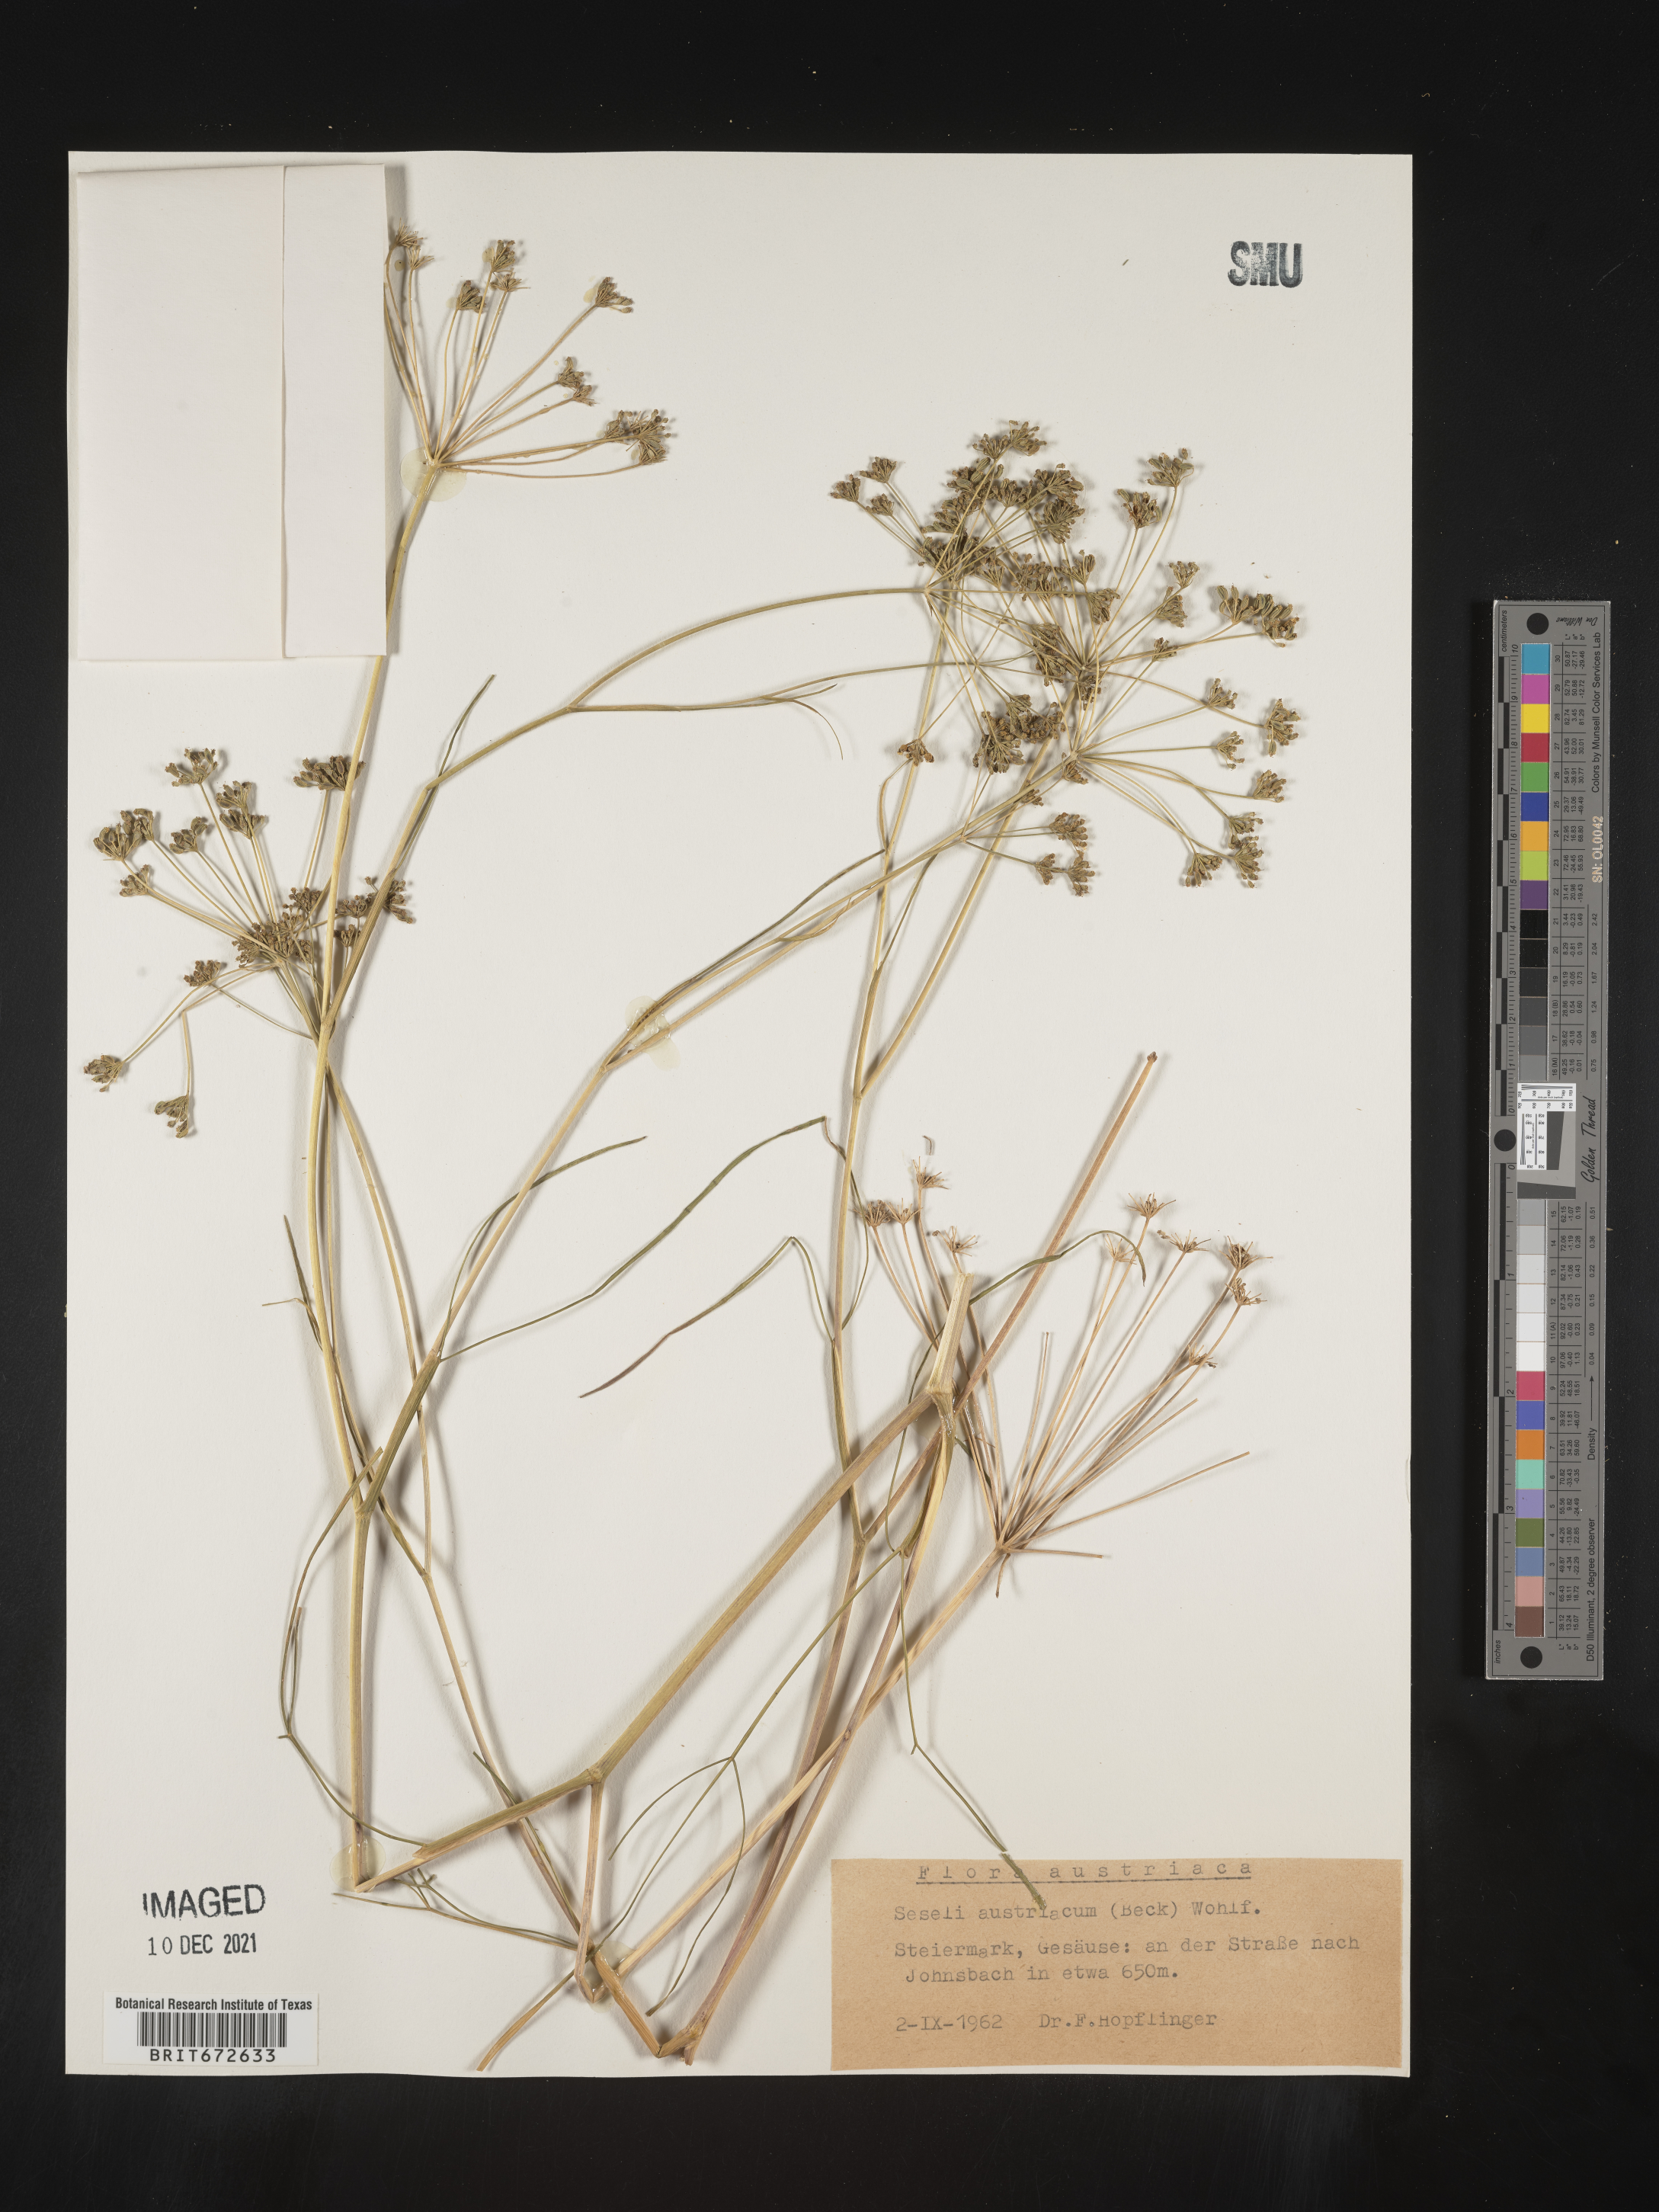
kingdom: Plantae
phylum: Tracheophyta
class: Magnoliopsida
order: Apiales
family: Apiaceae
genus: Seseli
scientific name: Seseli
